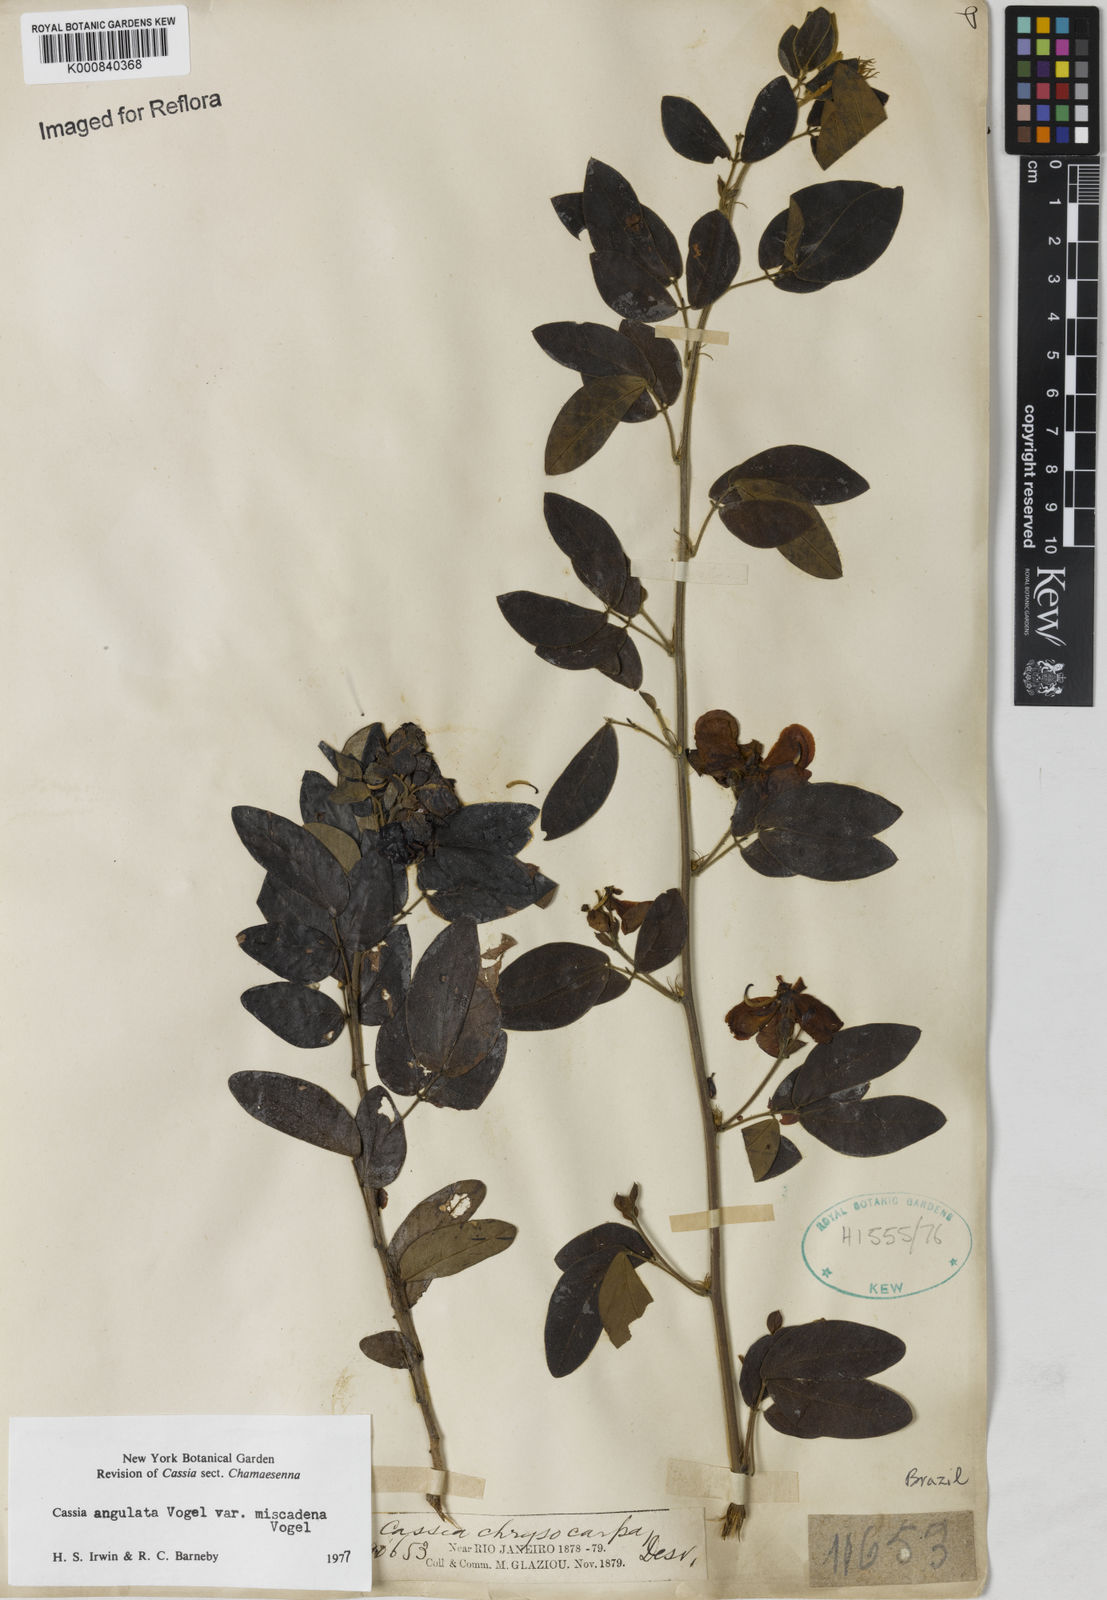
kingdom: Plantae
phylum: Tracheophyta
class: Magnoliopsida
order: Fabales
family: Fabaceae
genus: Senna
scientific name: Senna angulata
